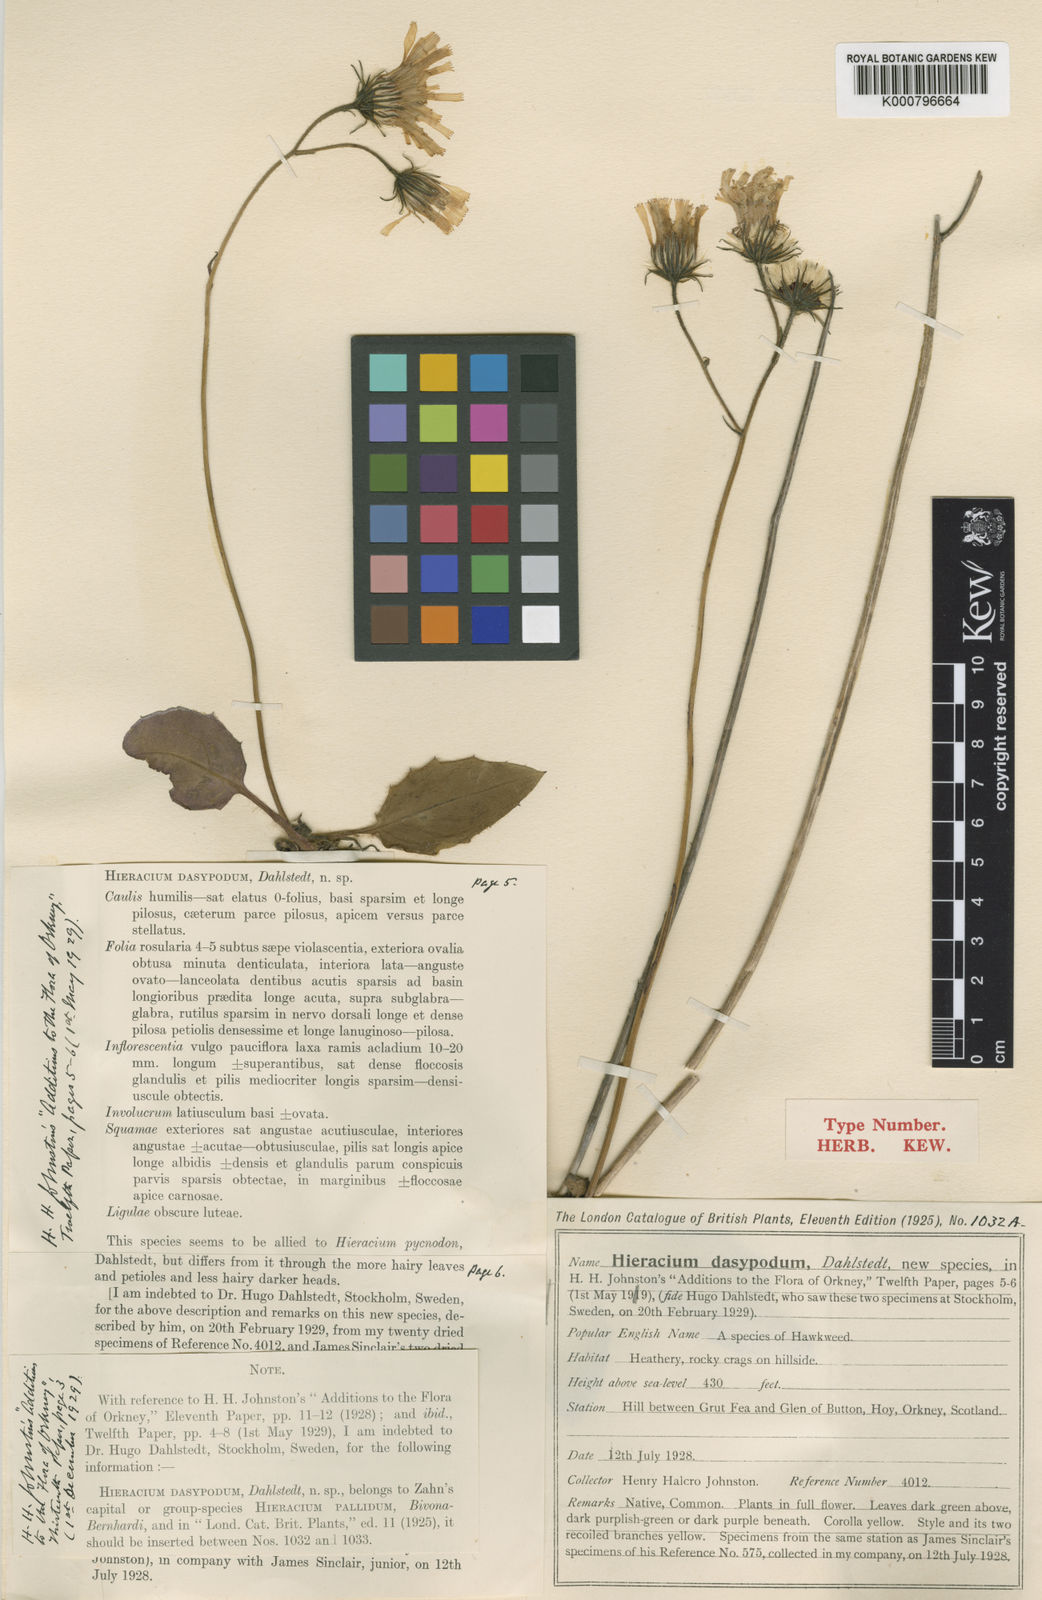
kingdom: Plantae
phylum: Tracheophyta
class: Magnoliopsida
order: Asterales
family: Asteraceae
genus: Hieracium
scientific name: Hieracium sarcophylloides
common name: Fleshy-leaved hawkweed
